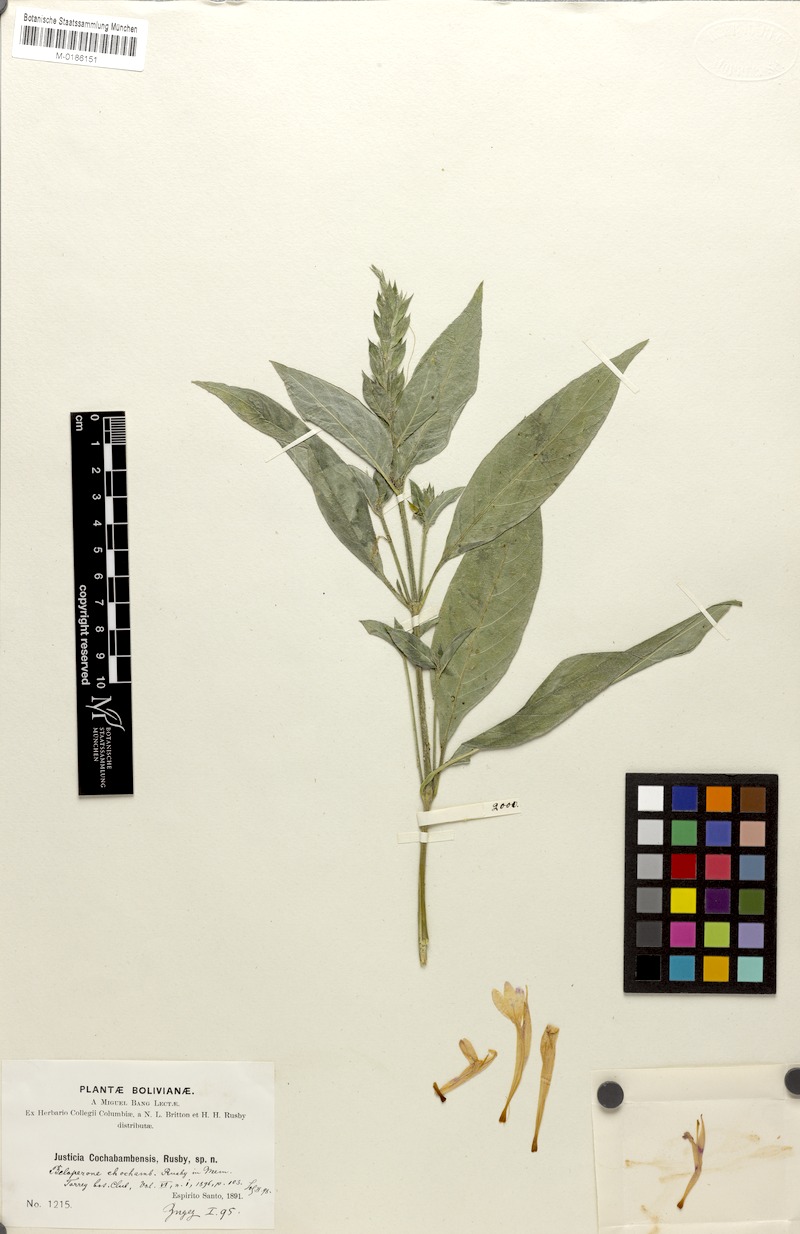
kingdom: Plantae
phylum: Tracheophyta
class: Magnoliopsida
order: Lamiales
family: Acanthaceae
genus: Justicia
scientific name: Justicia ramulosa
